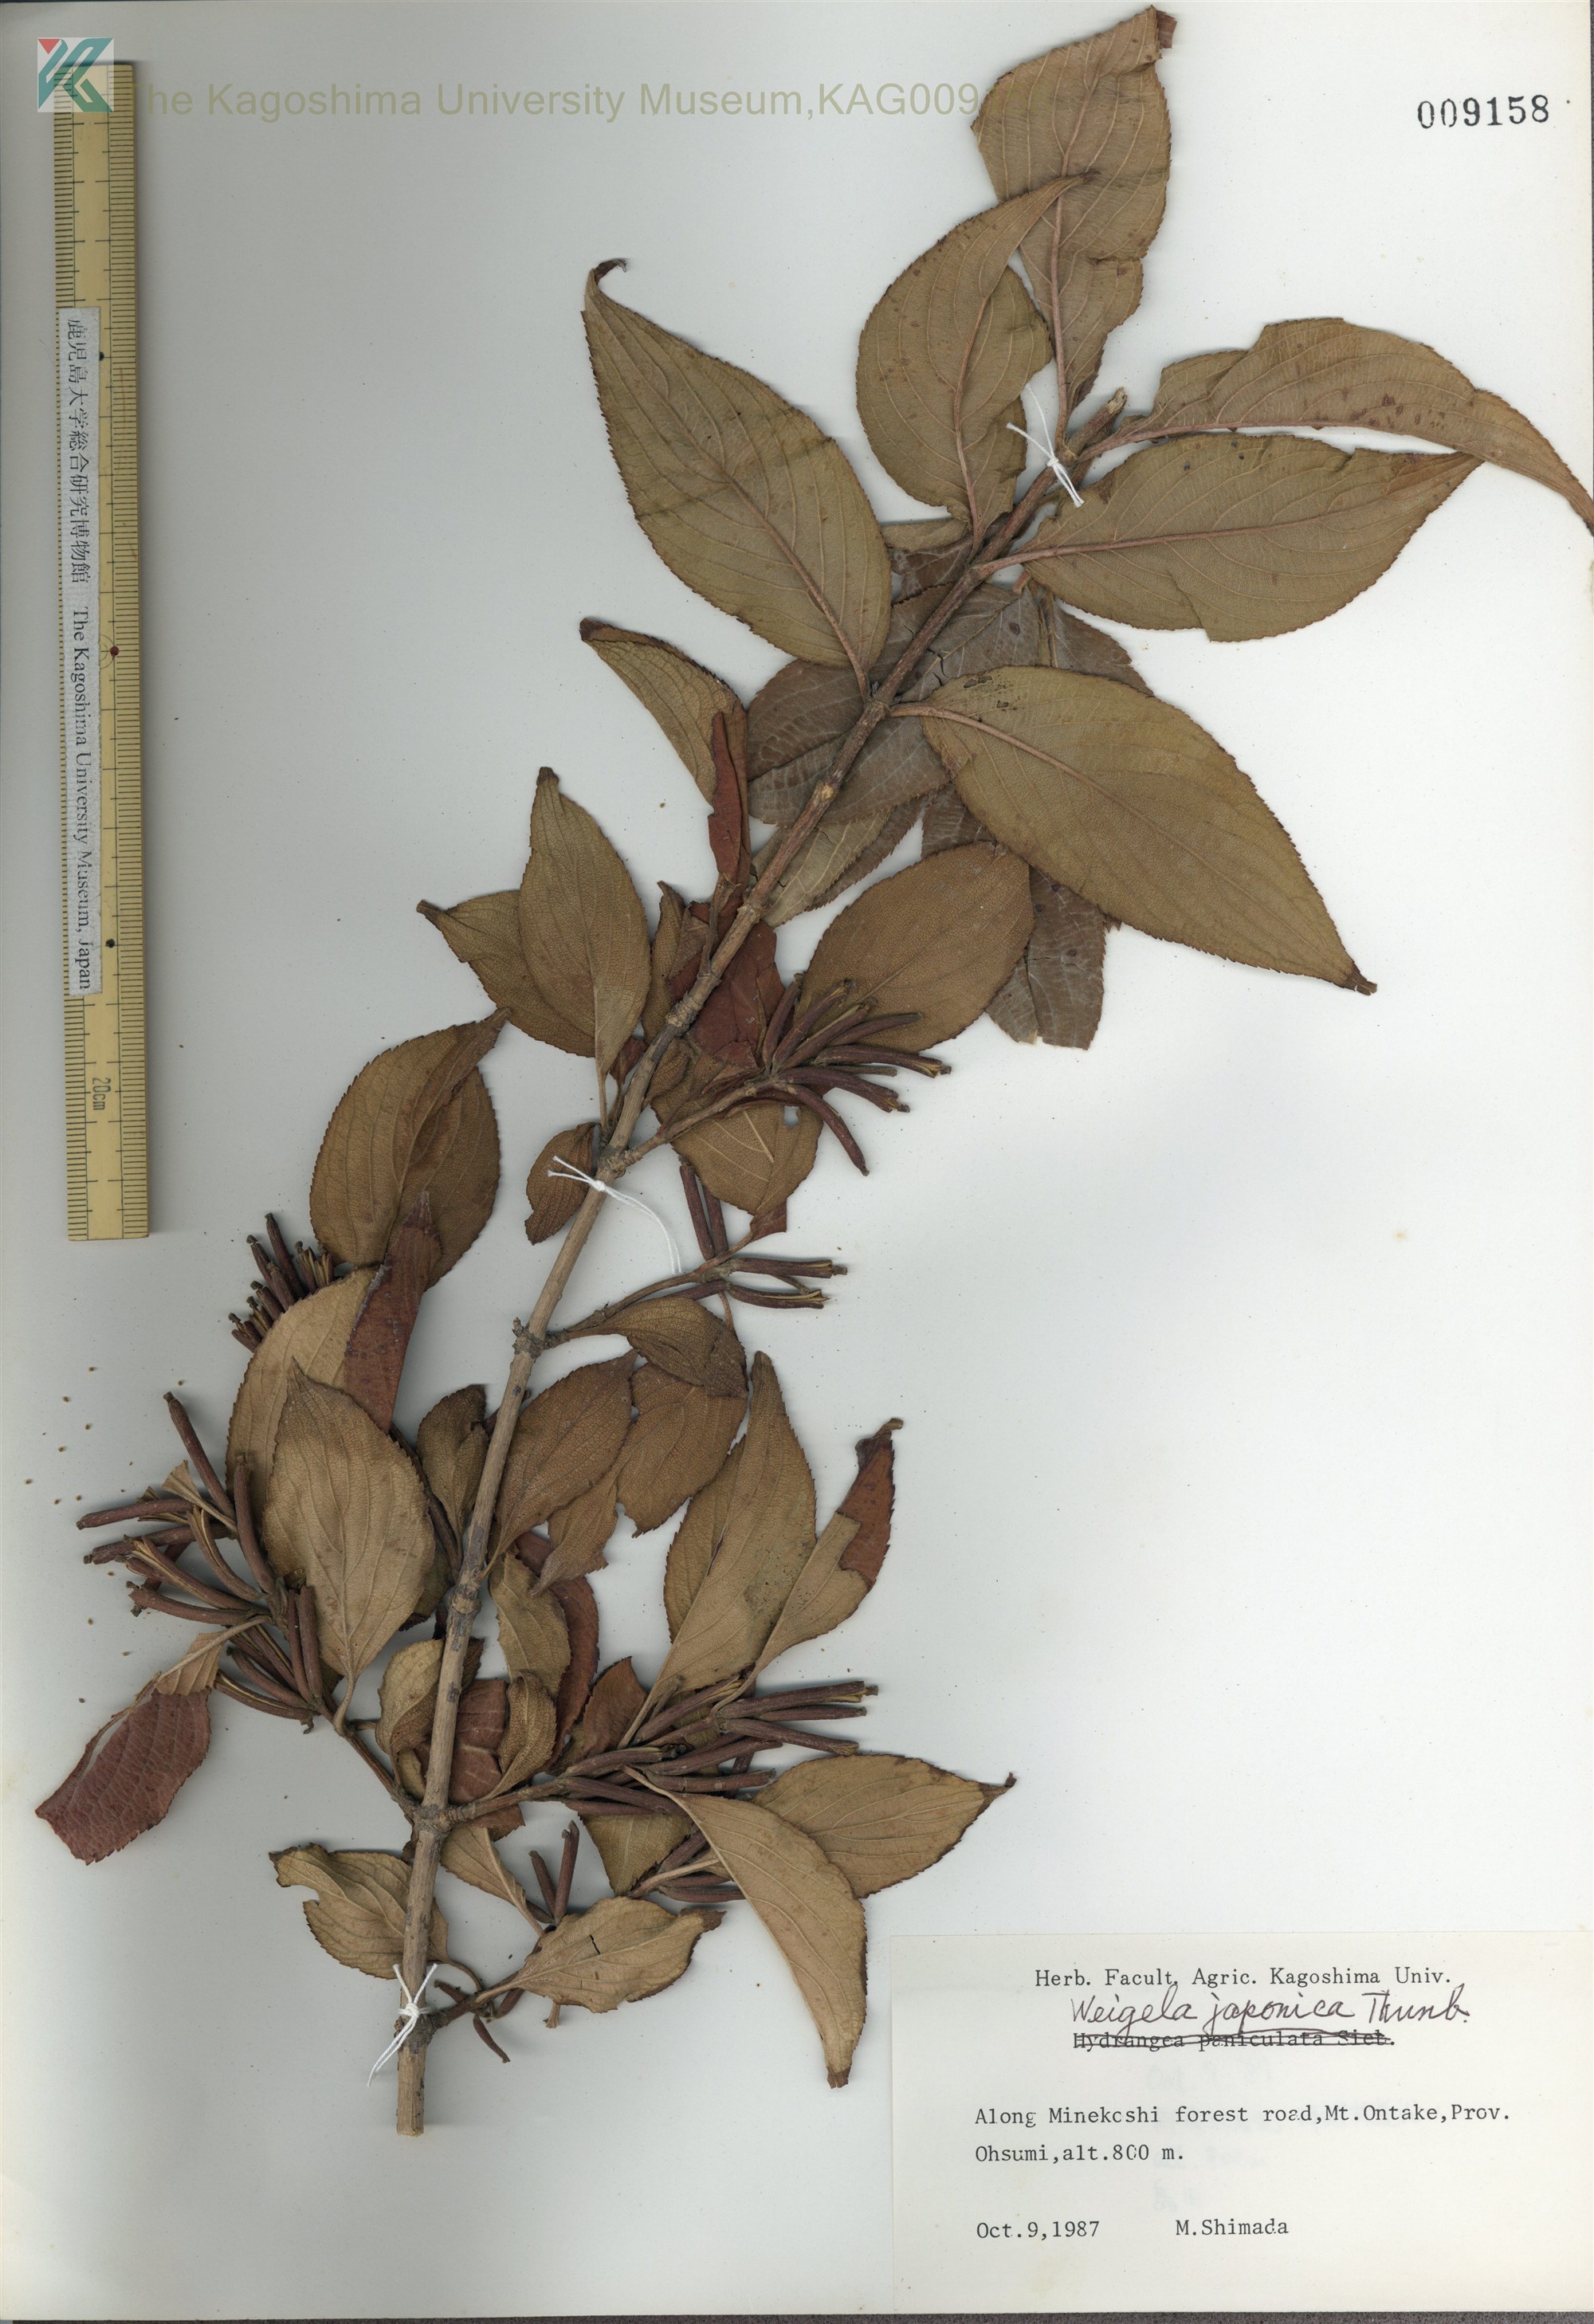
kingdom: Plantae
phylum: Tracheophyta
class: Magnoliopsida
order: Dipsacales
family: Caprifoliaceae
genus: Weigela
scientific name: Weigela japonica
